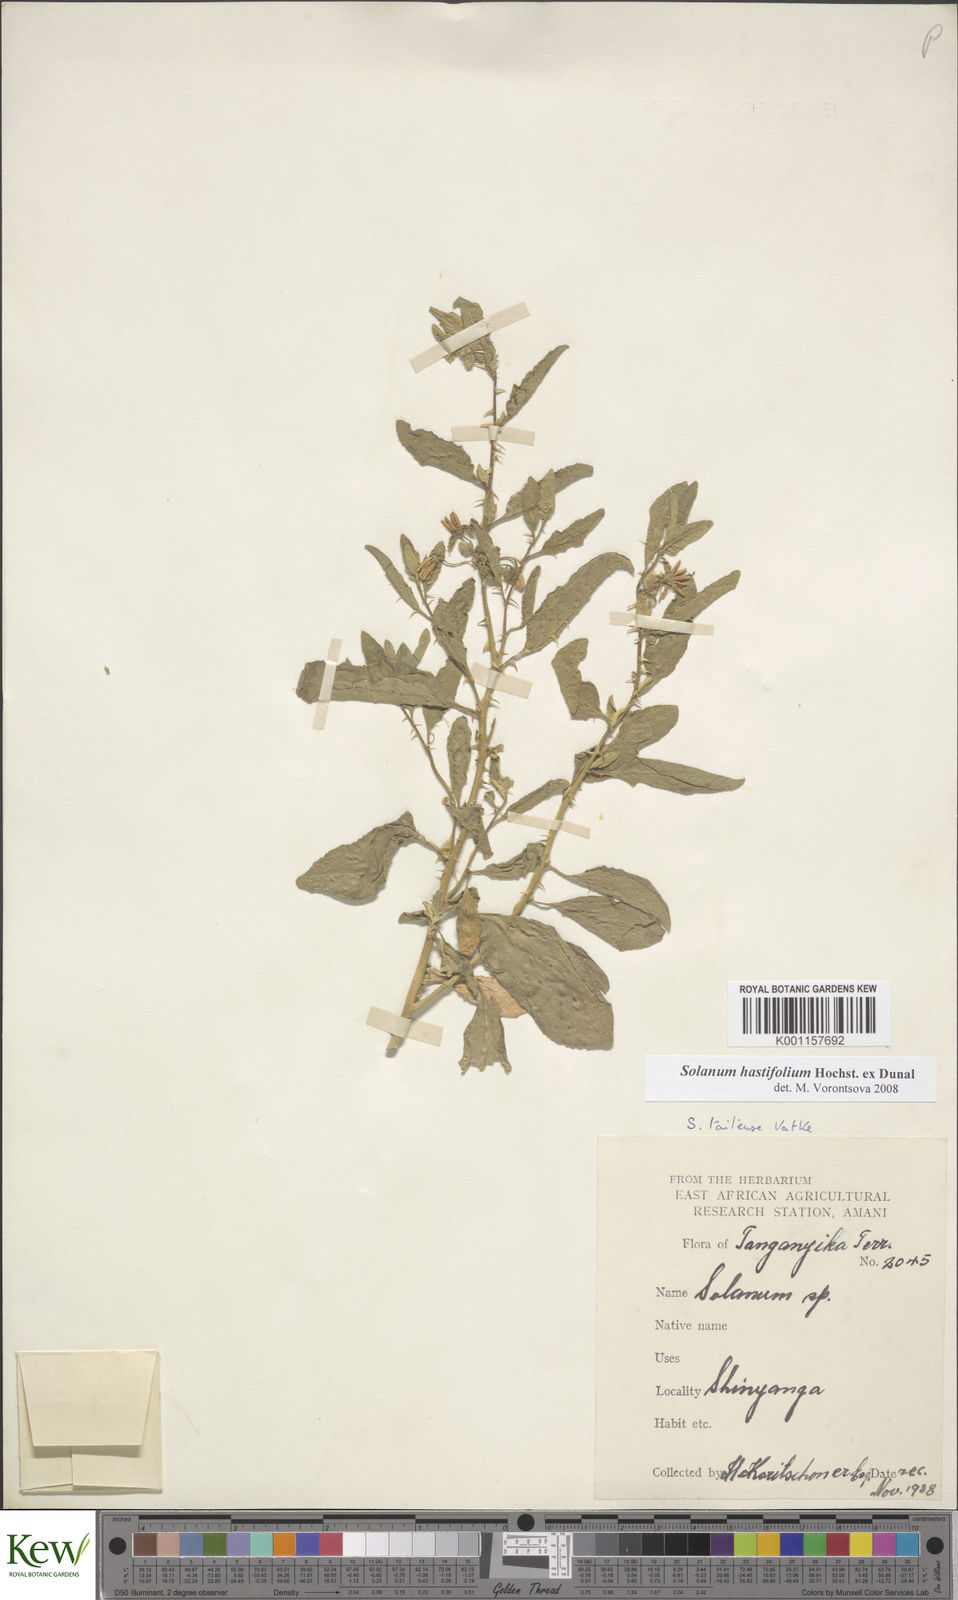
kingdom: Plantae
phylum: Tracheophyta
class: Magnoliopsida
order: Solanales
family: Solanaceae
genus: Solanum
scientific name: Solanum hastifolium
